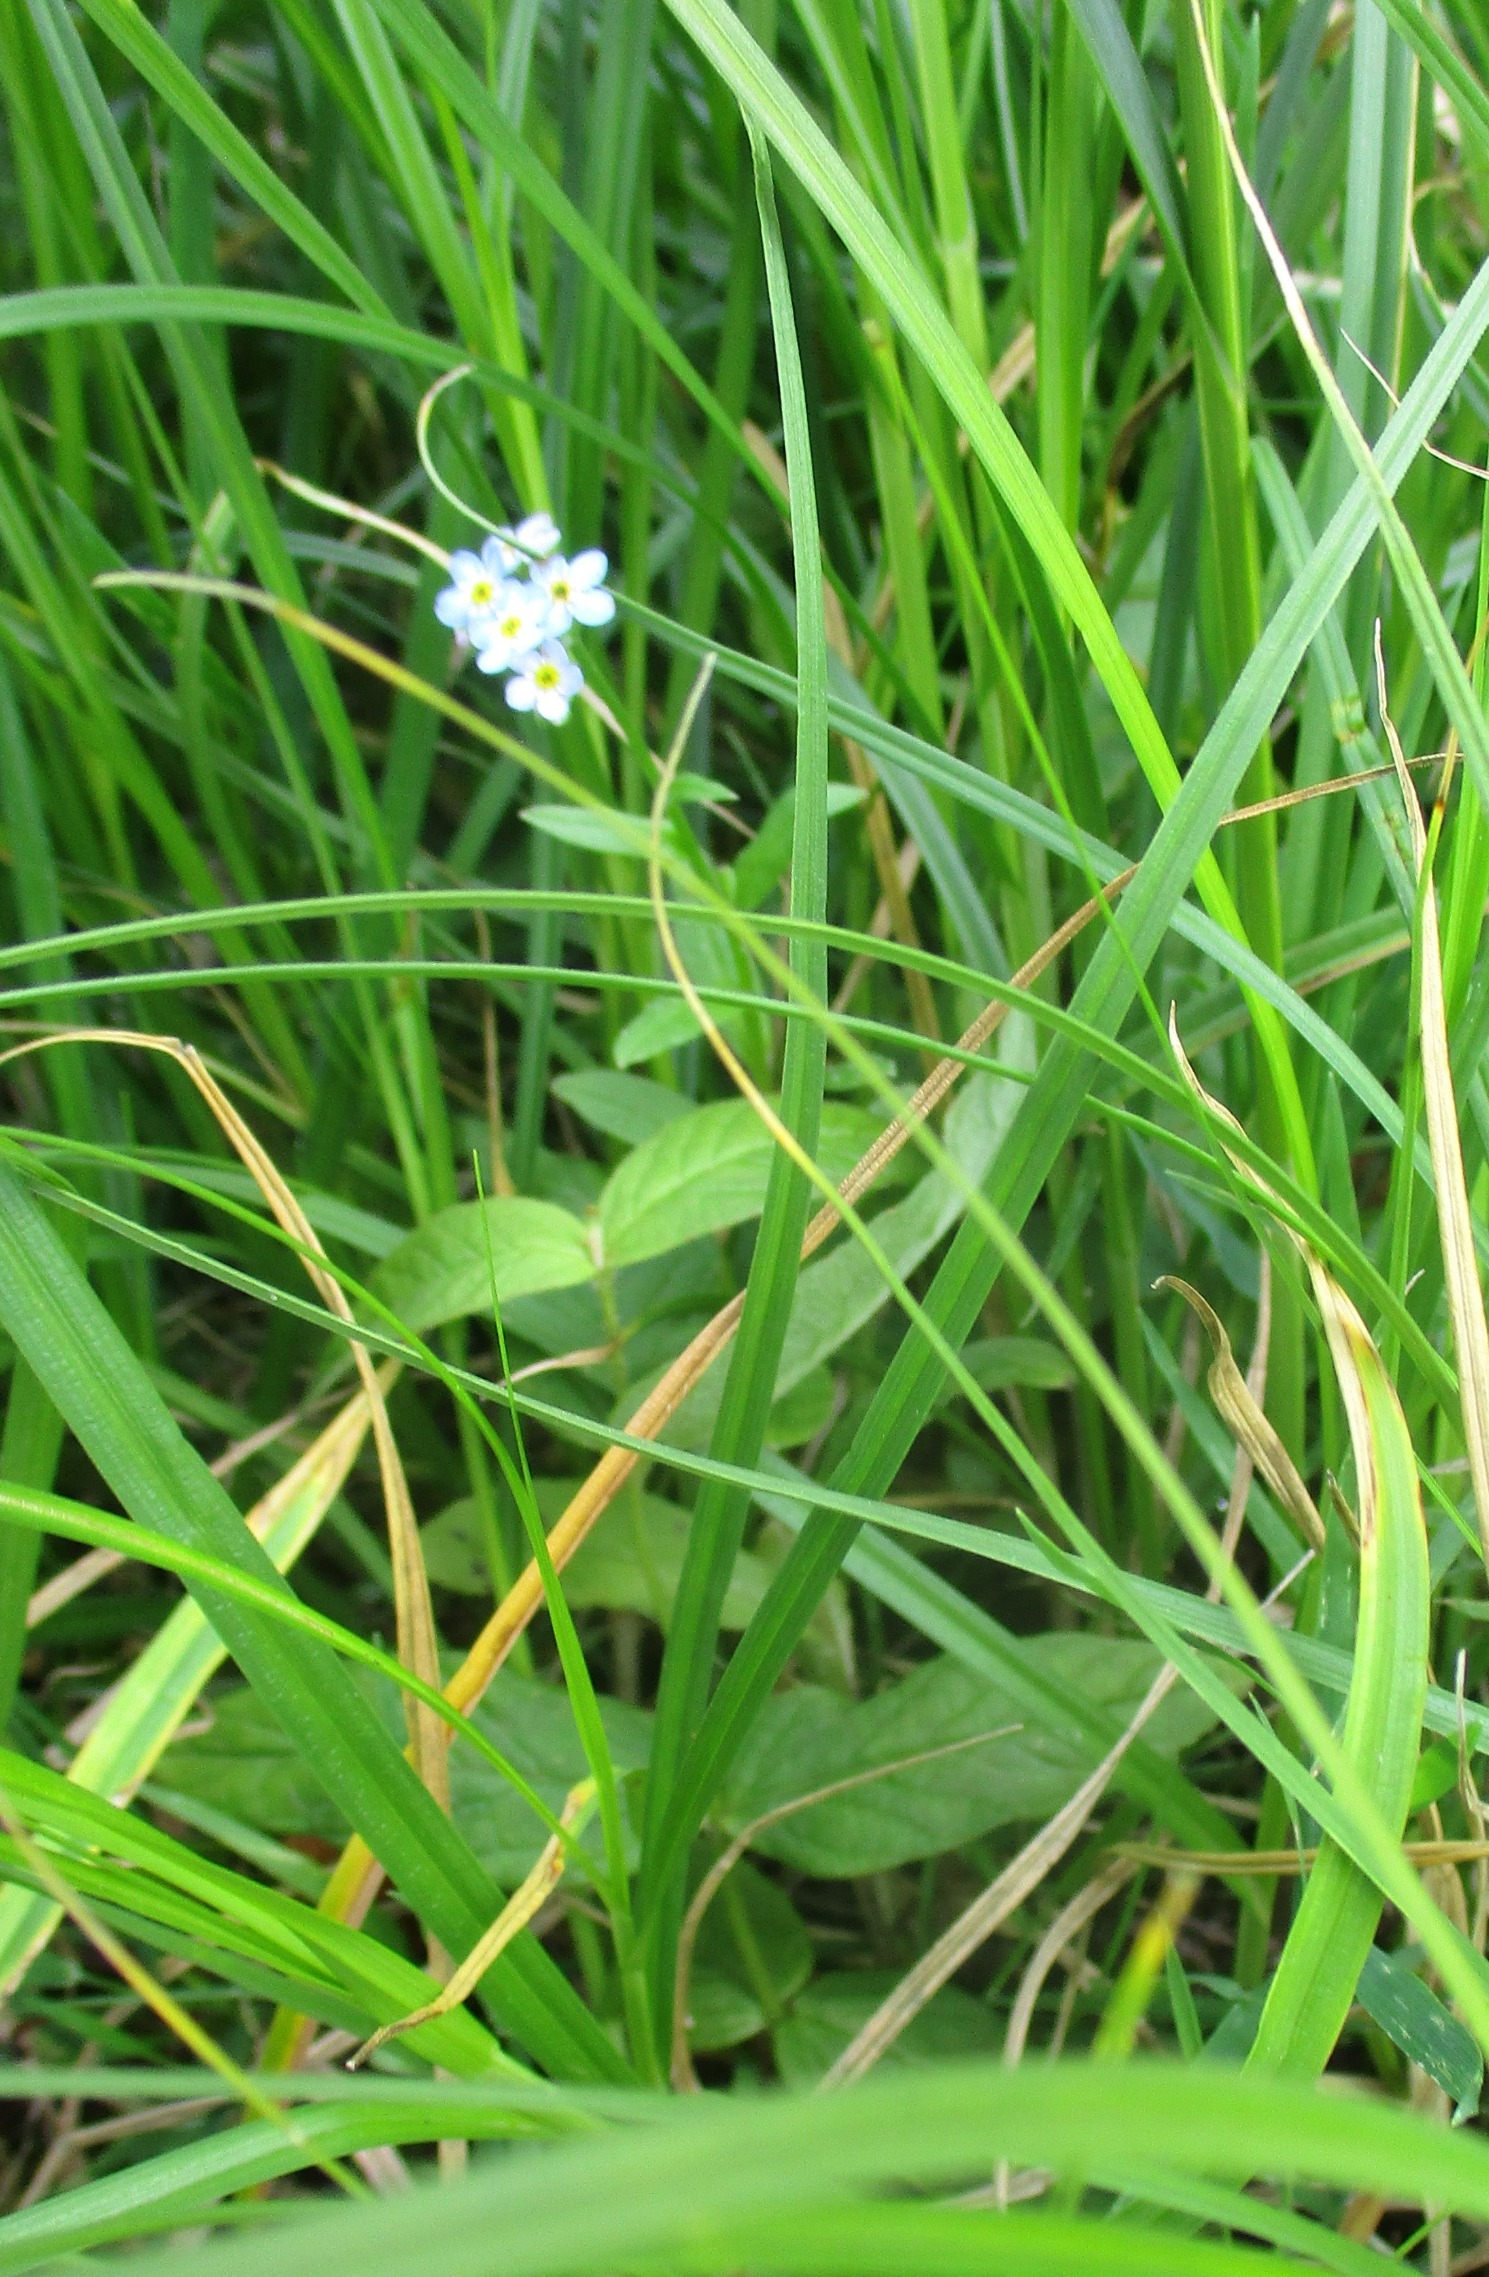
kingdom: Plantae
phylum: Tracheophyta
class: Magnoliopsida
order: Boraginales
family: Boraginaceae
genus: Myosotis
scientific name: Myosotis scorpioides
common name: Eng-forglemmigej
